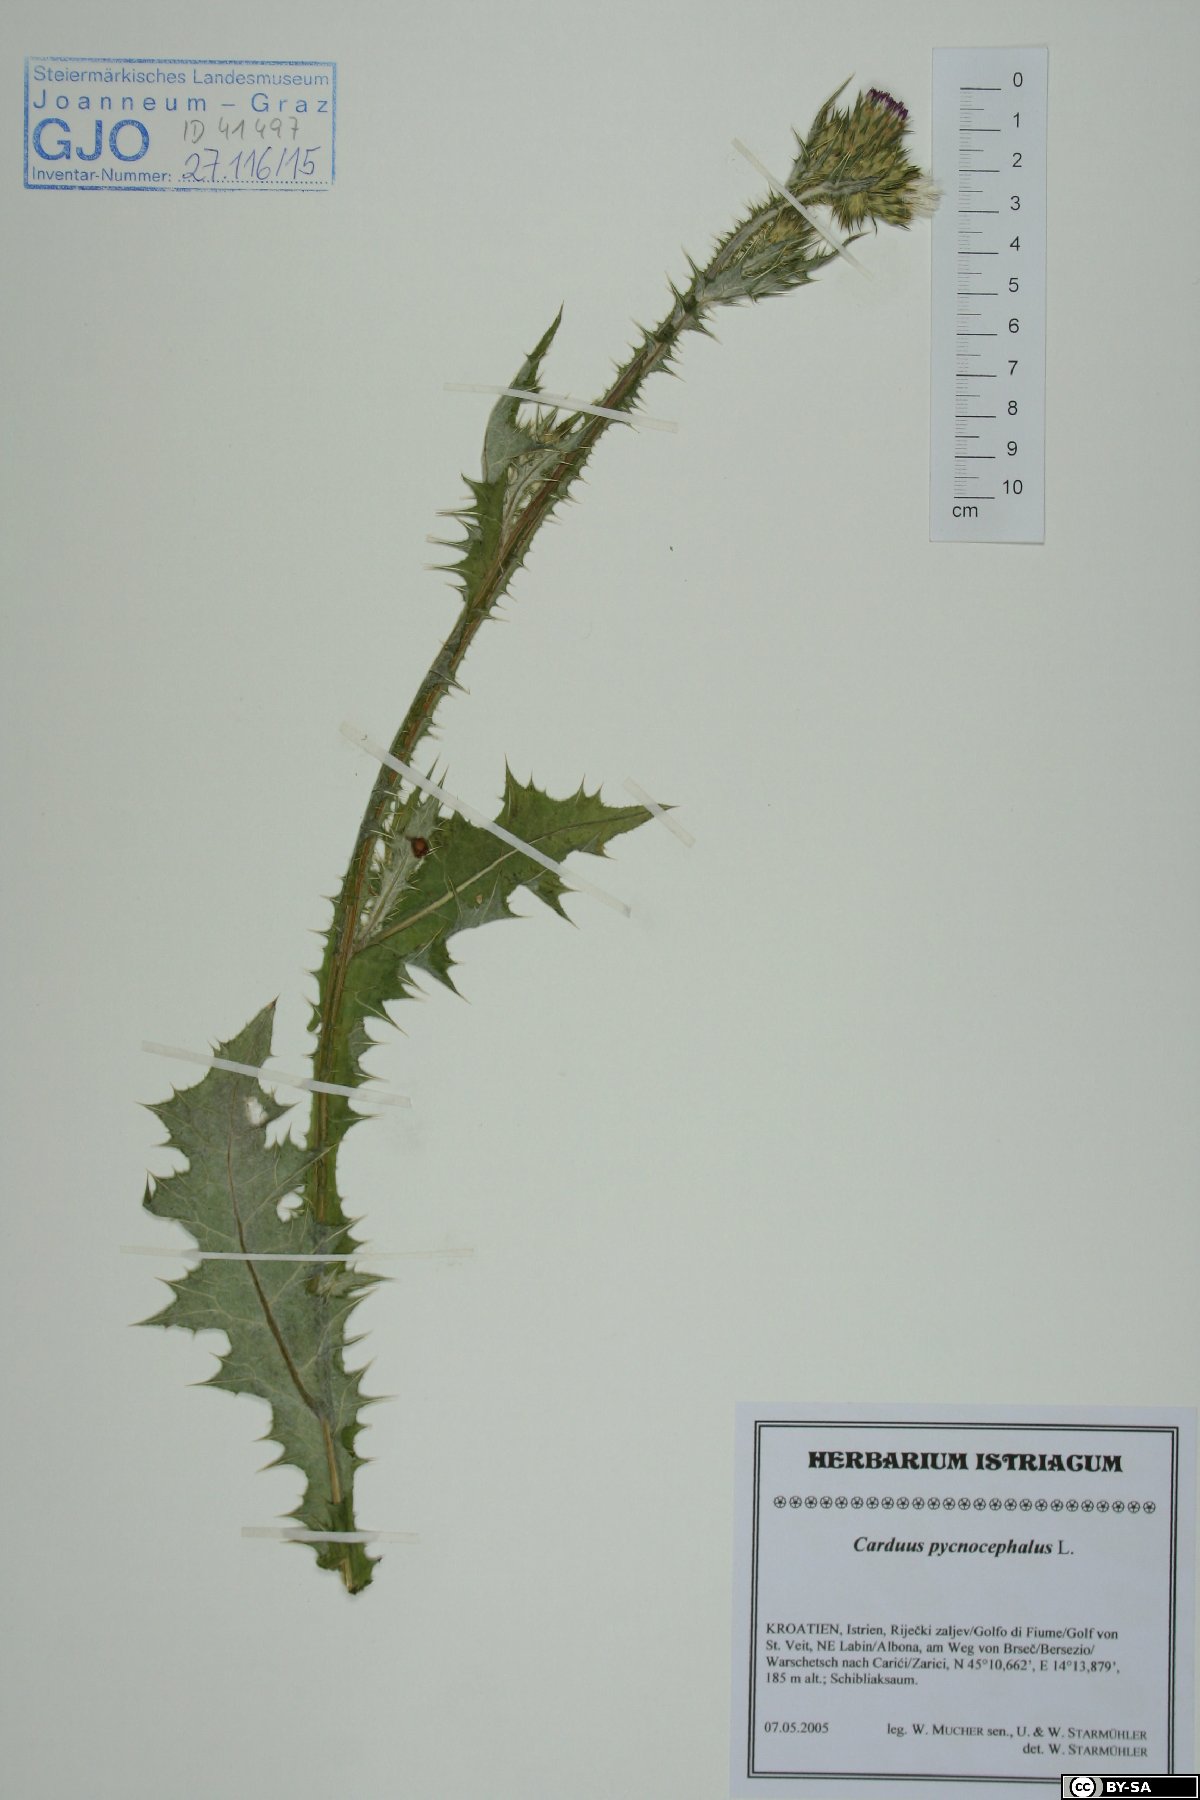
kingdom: Plantae
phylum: Tracheophyta
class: Magnoliopsida
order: Asterales
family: Asteraceae
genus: Carduus
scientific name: Carduus pycnocephalus
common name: Plymouth thistle
